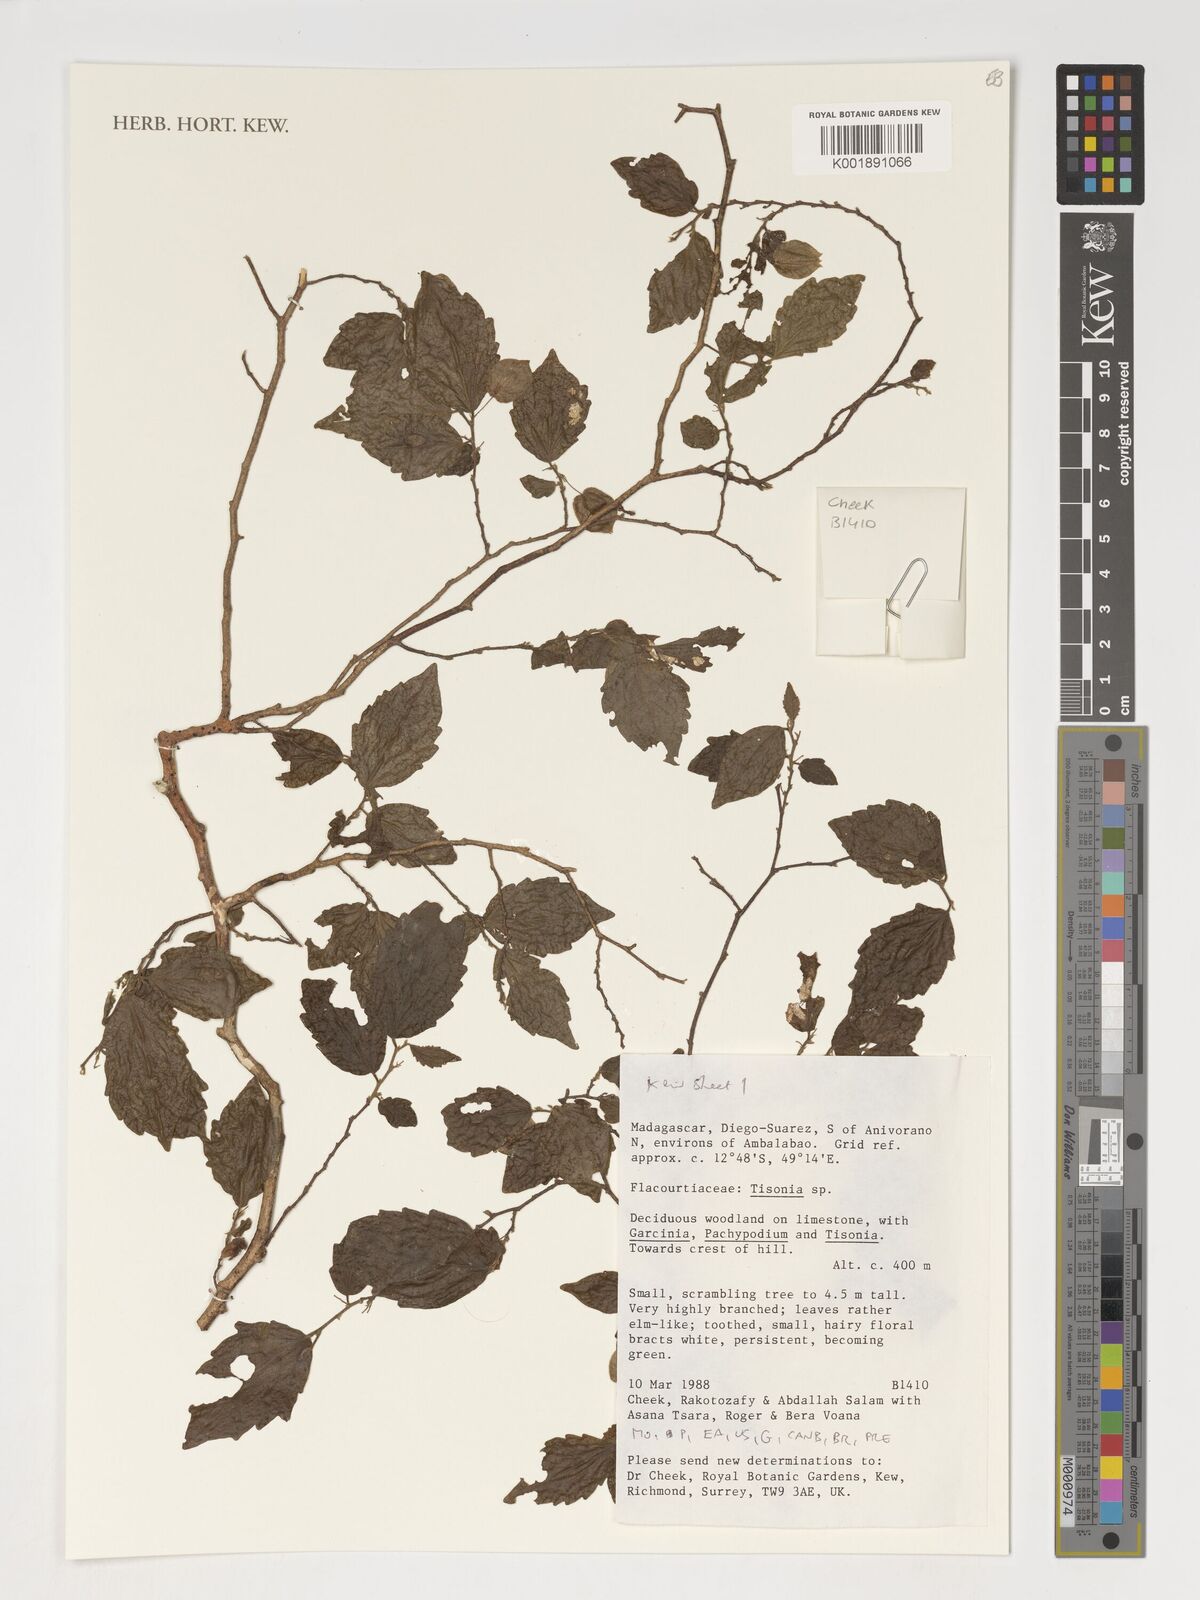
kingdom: Plantae
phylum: Tracheophyta
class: Magnoliopsida
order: Malpighiales
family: Salicaceae
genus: Tisonia
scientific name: Tisonia
